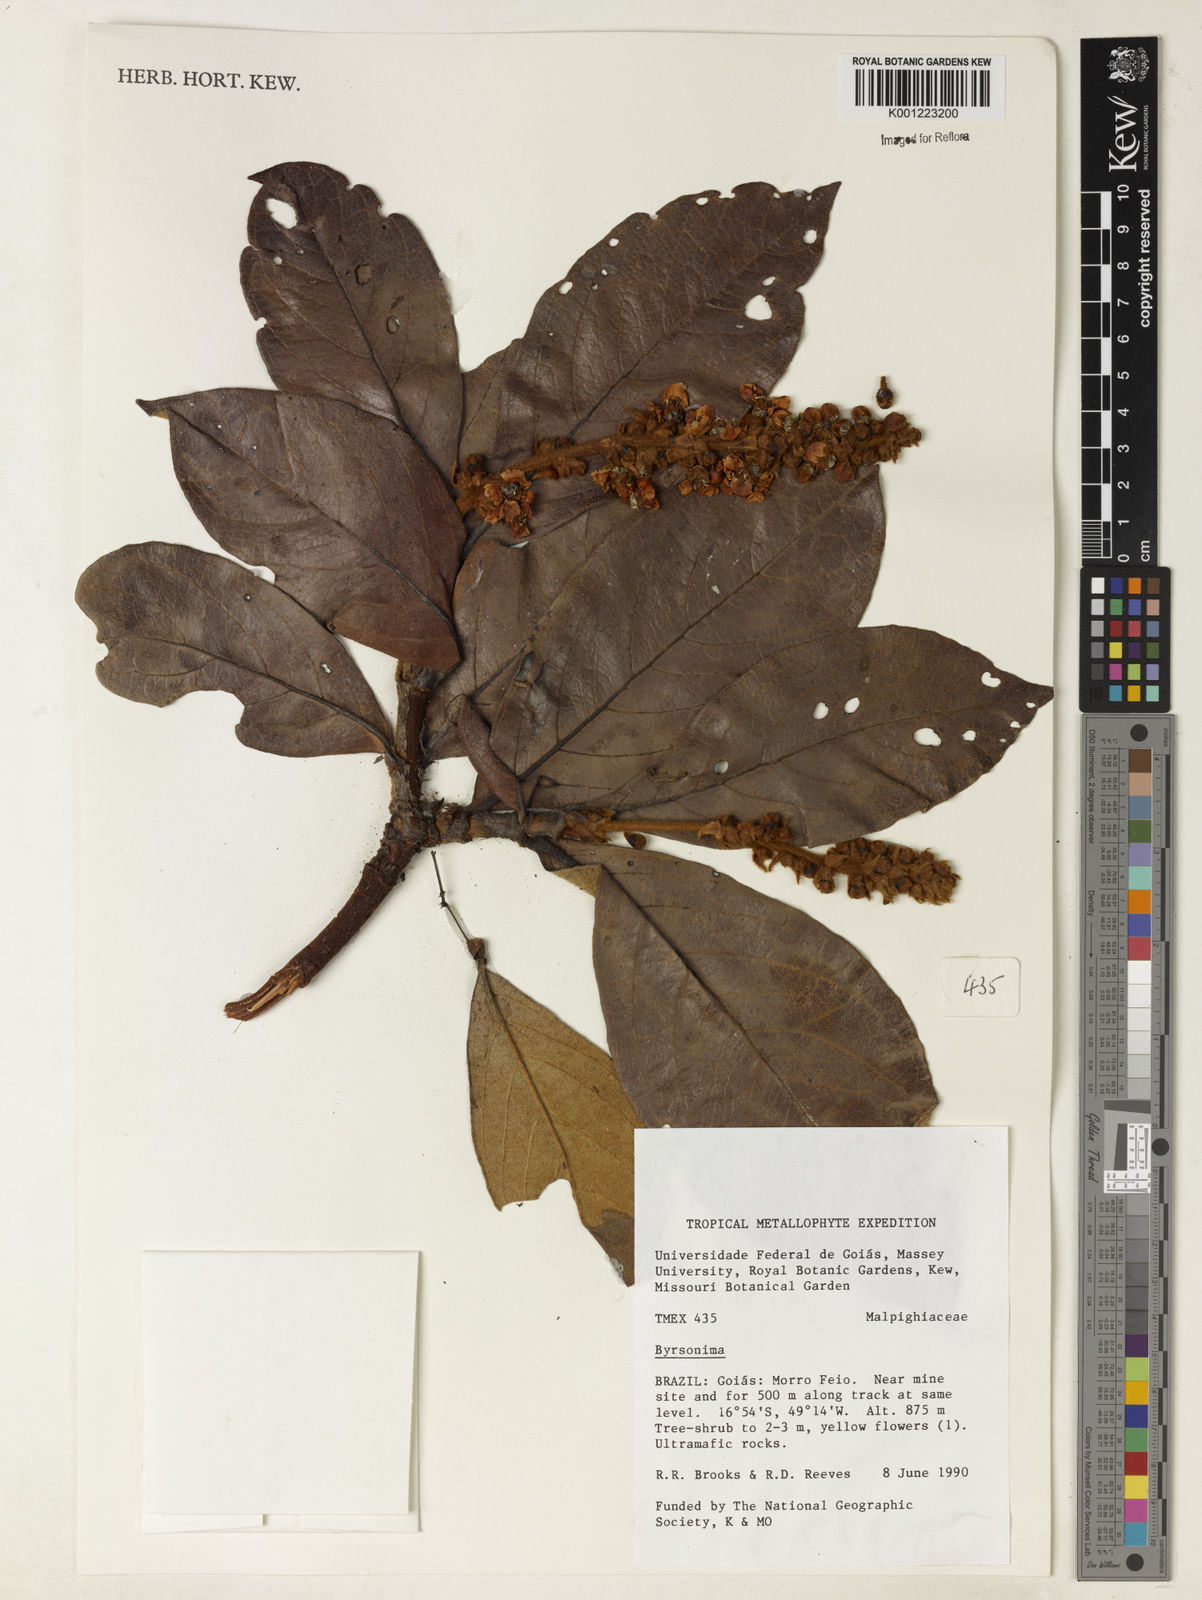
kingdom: Plantae
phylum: Tracheophyta
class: Magnoliopsida
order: Malpighiales
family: Malpighiaceae
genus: Byrsonima
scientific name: Byrsonima
